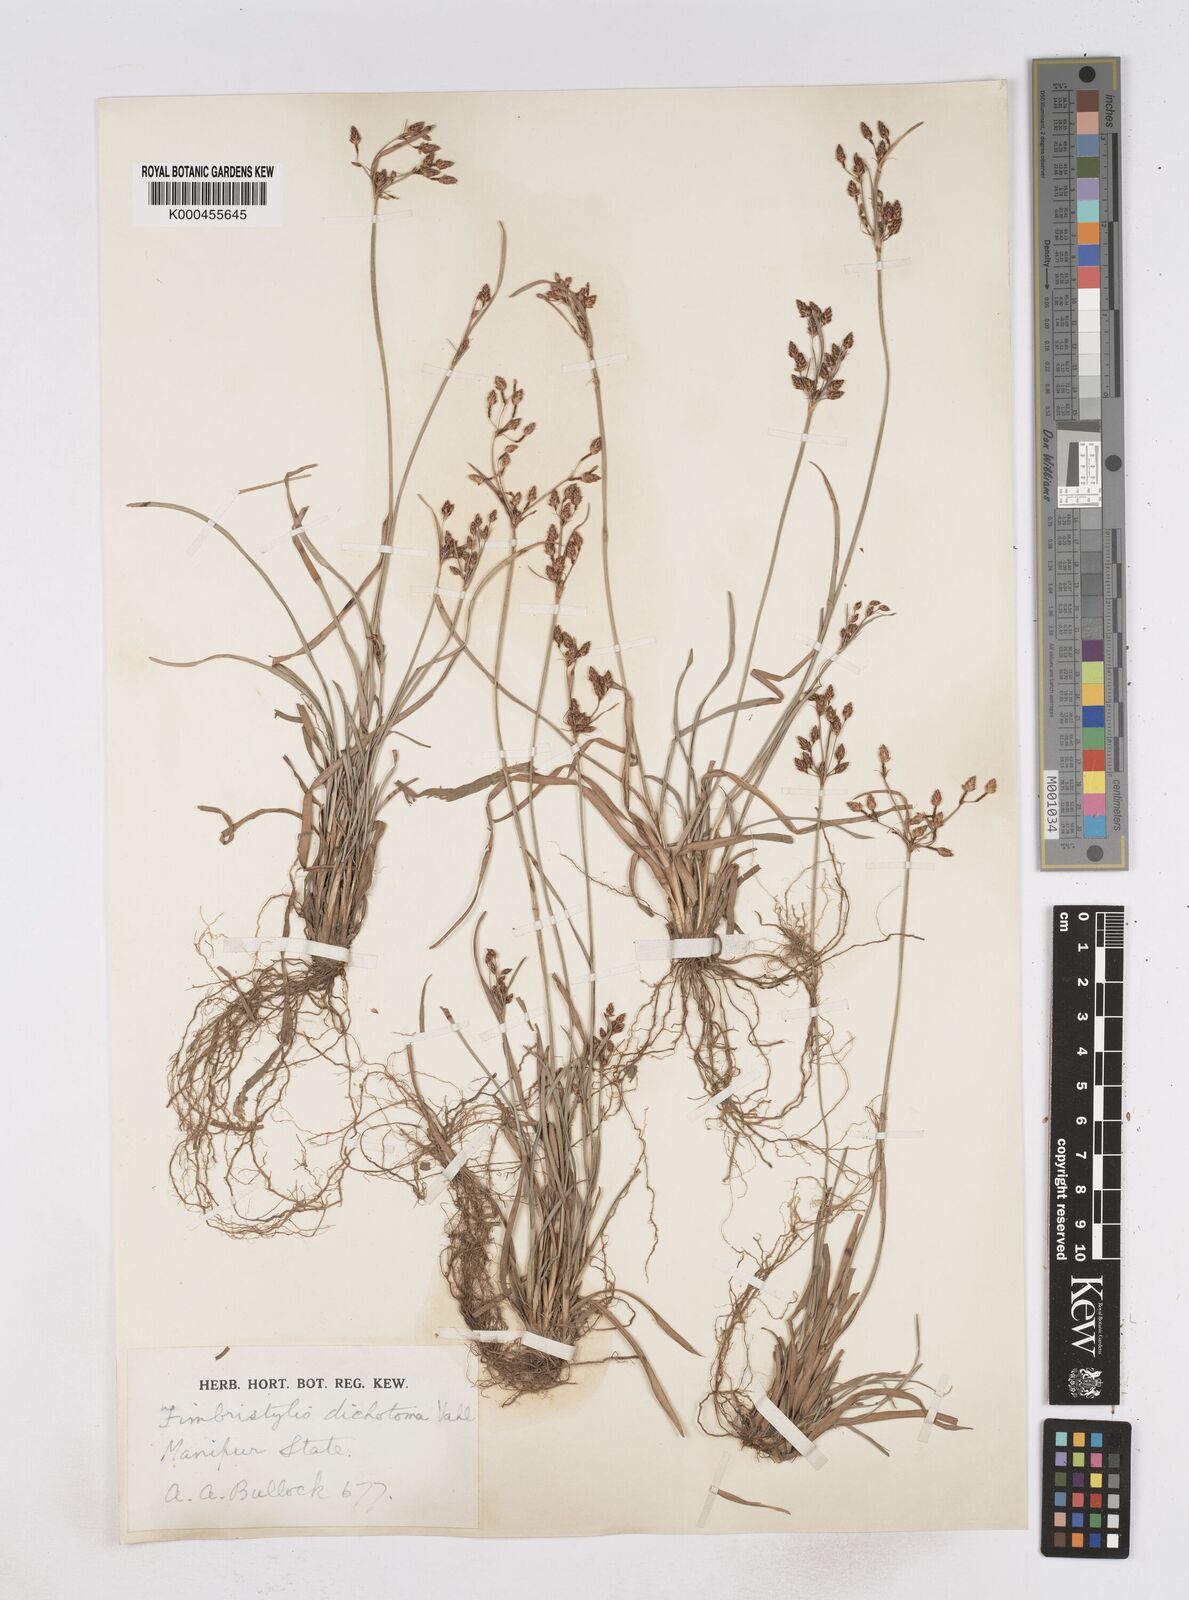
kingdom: Plantae
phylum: Tracheophyta
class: Liliopsida
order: Poales
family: Cyperaceae
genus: Fimbristylis
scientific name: Fimbristylis dichotoma
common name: Forked fimbry
